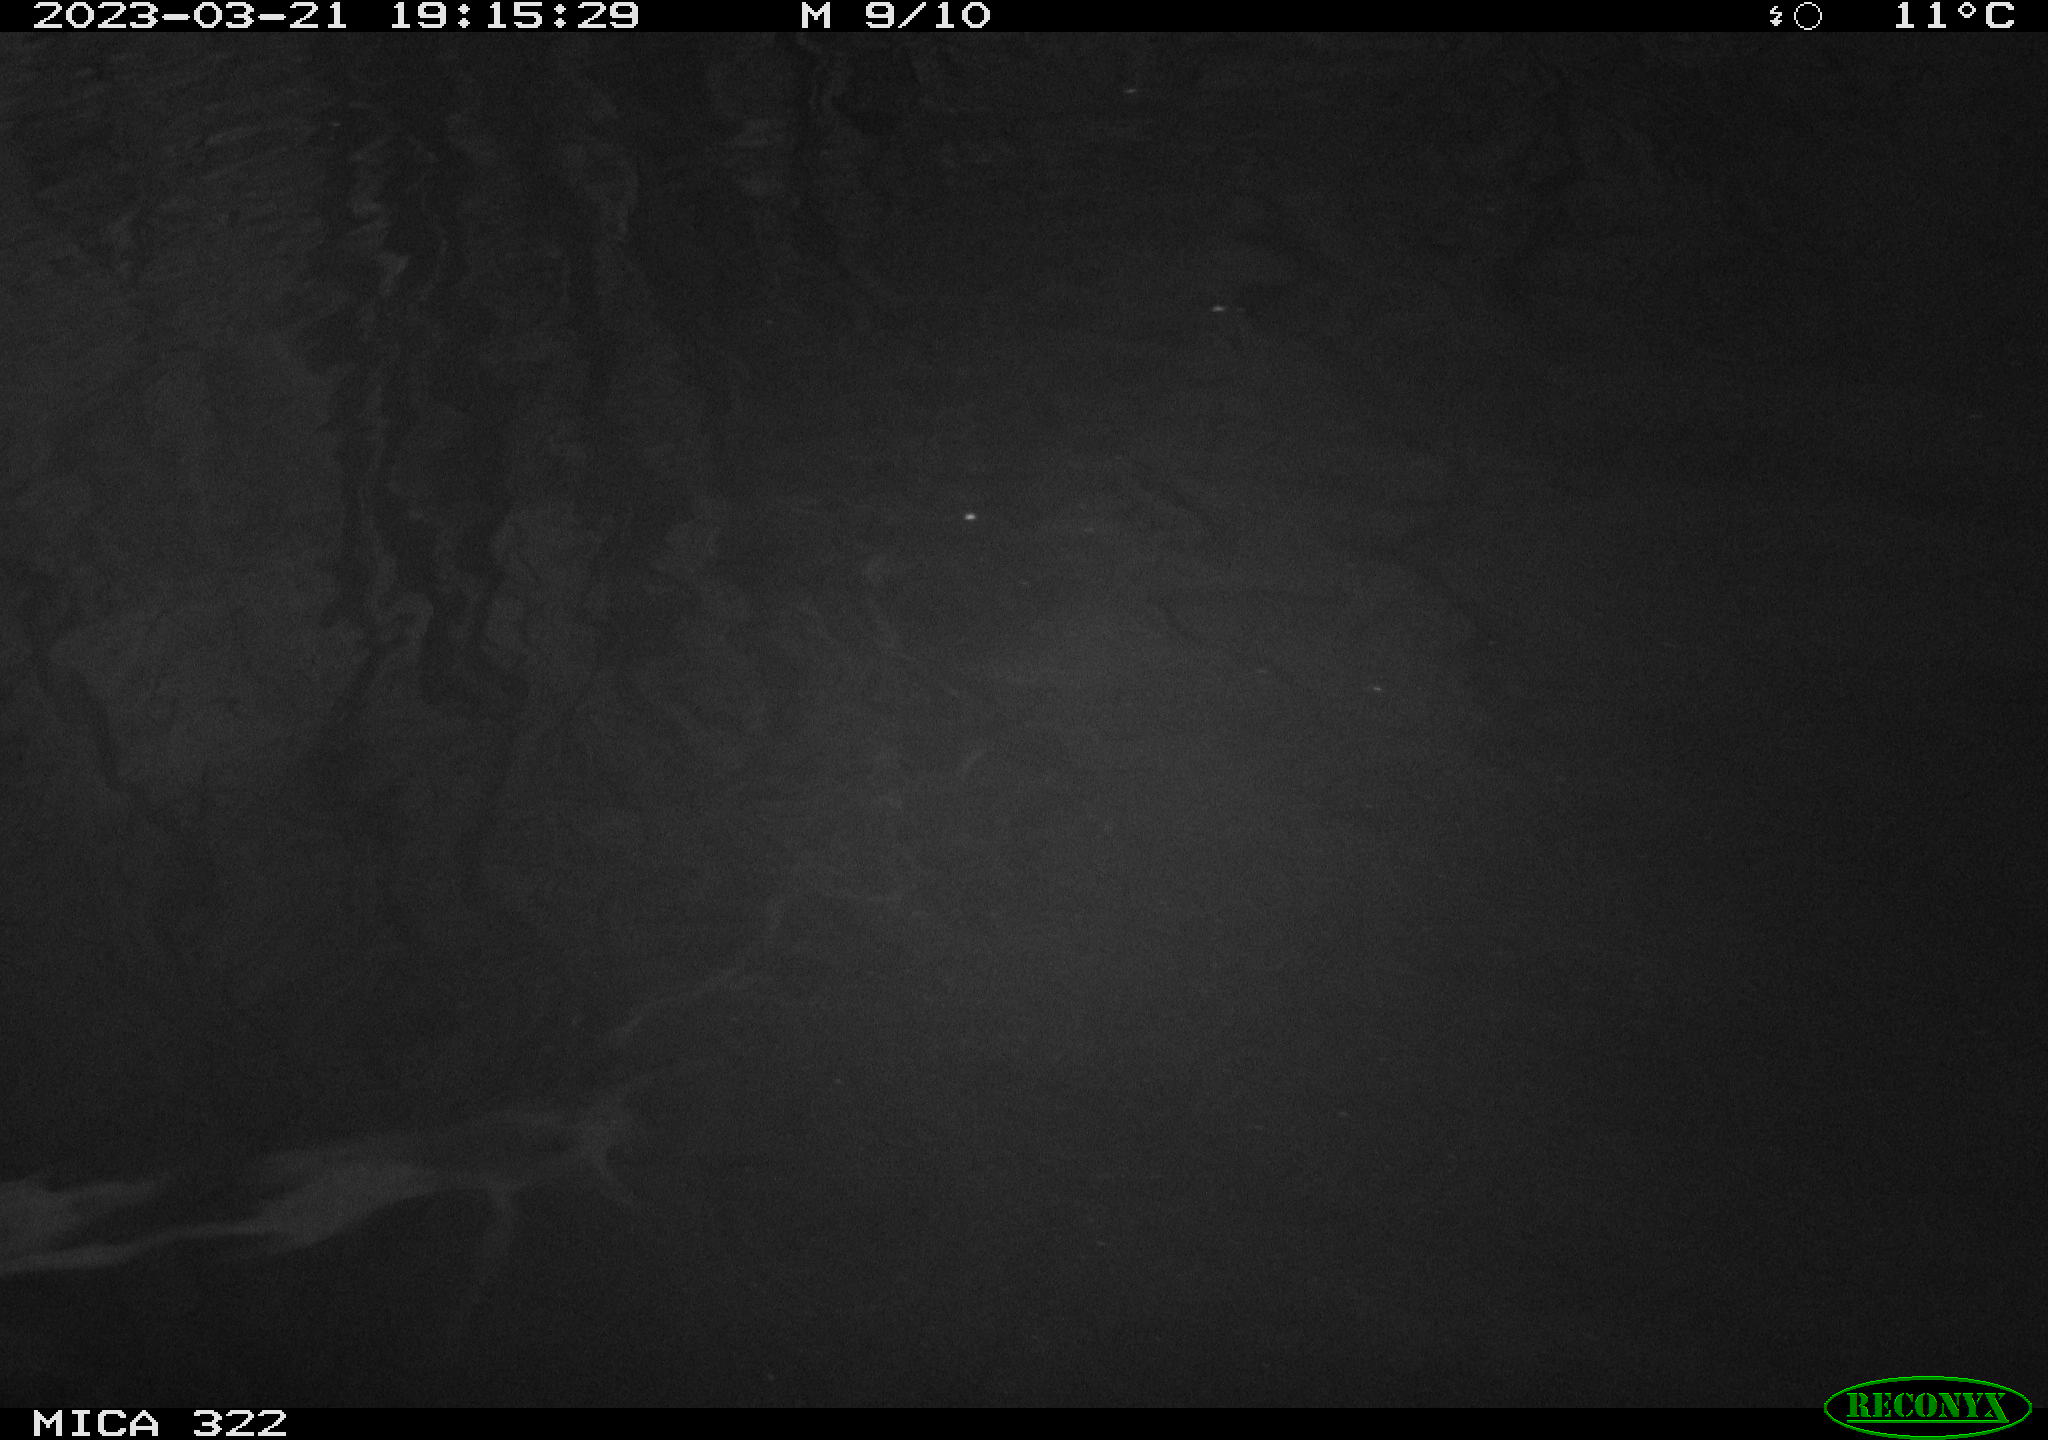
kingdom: Animalia
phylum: Chordata
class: Mammalia
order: Rodentia
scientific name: Rodentia
